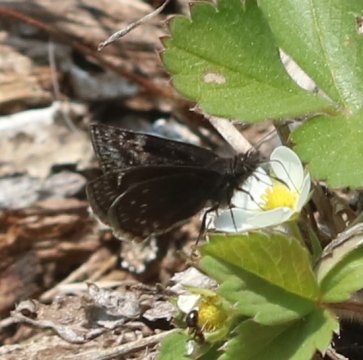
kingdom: Animalia
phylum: Arthropoda
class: Insecta
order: Lepidoptera
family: Hesperiidae
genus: Erynnis
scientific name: Erynnis icelus
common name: Dreamy Duskywing
